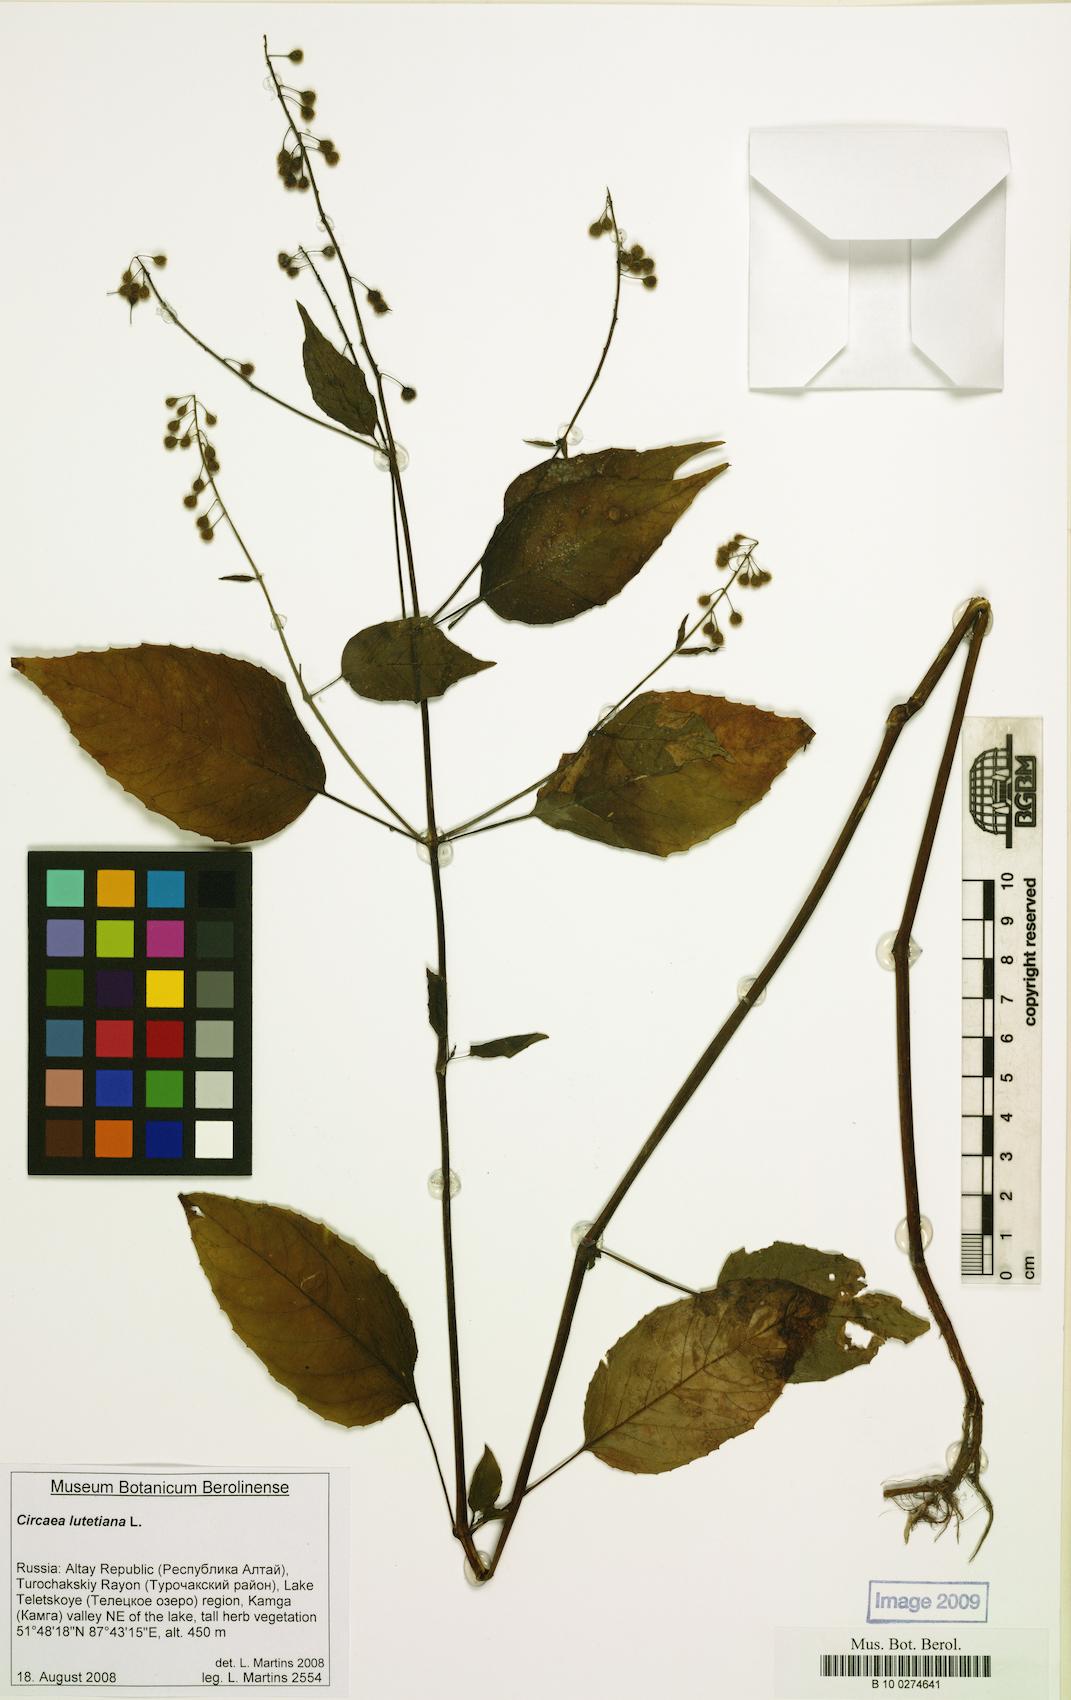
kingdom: Plantae
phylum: Tracheophyta
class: Magnoliopsida
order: Myrtales
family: Onagraceae
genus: Circaea
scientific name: Circaea lutetiana
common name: Enchanter's-nightshade
